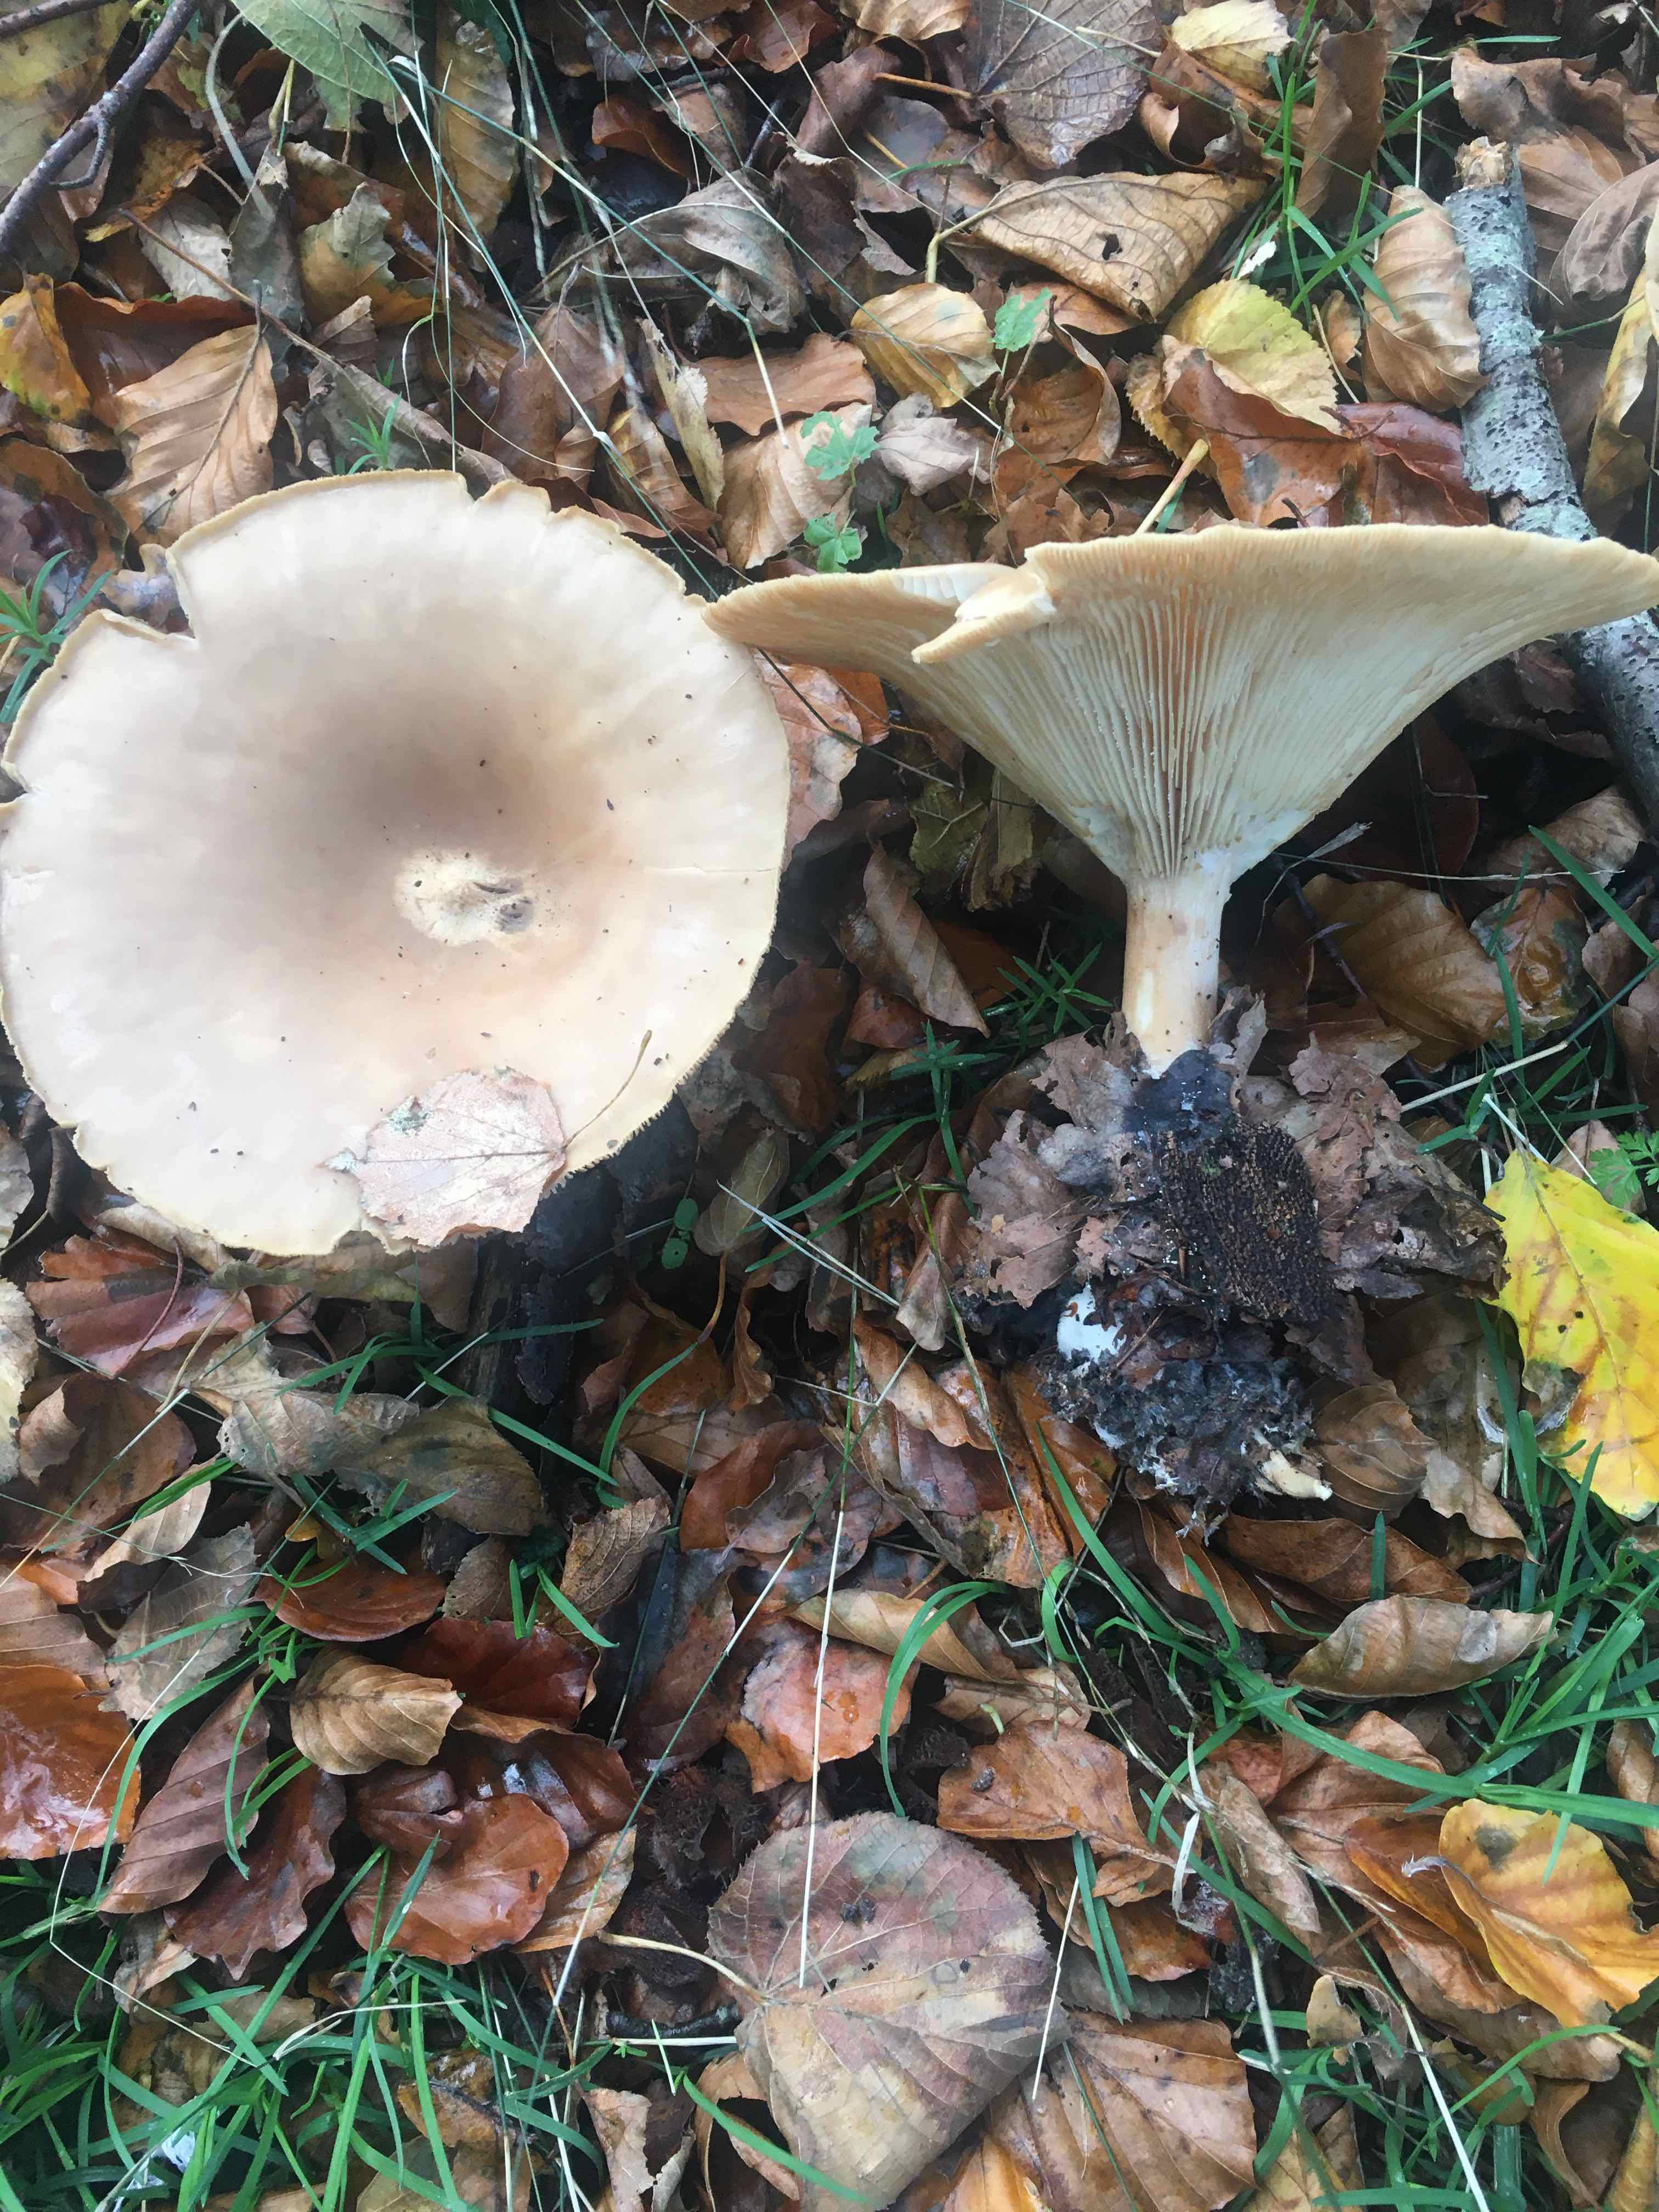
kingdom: Fungi
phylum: Basidiomycota
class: Agaricomycetes
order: Agaricales
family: Tricholomataceae
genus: Infundibulicybe
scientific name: Infundibulicybe geotropa
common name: stor tragthat
